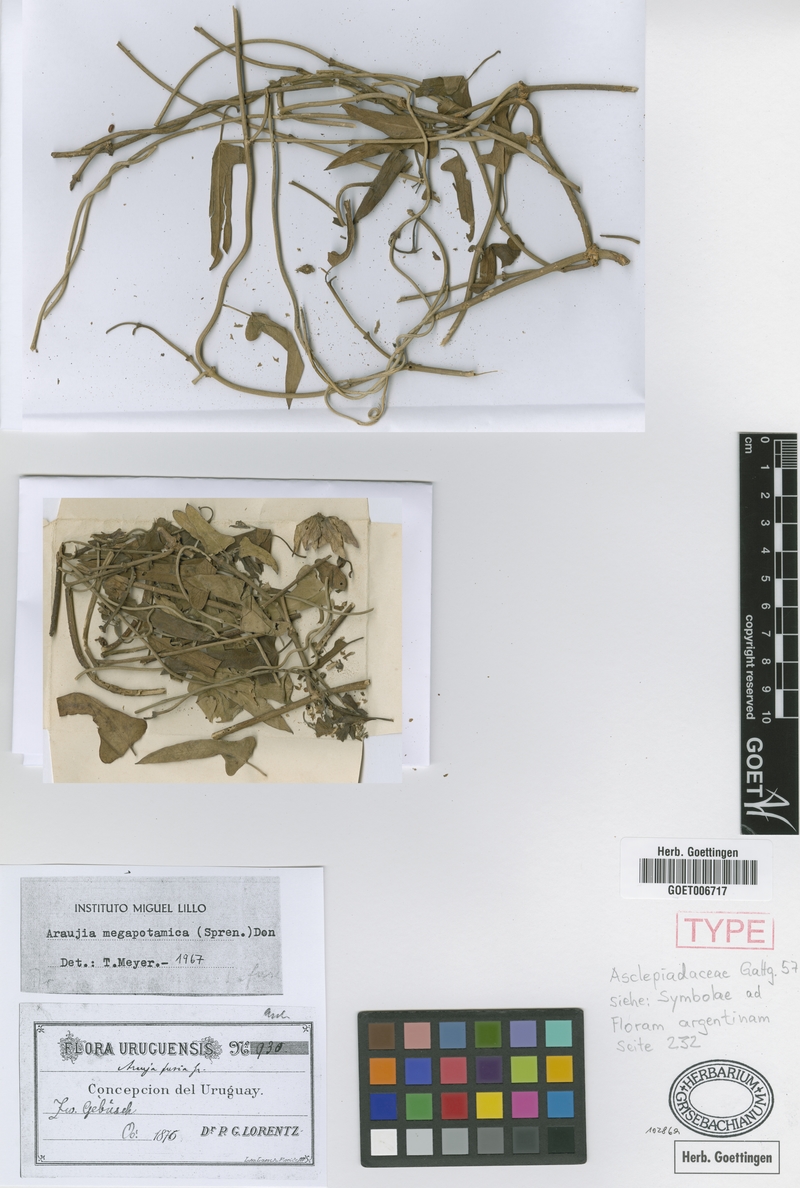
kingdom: Plantae
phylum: Tracheophyta
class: Magnoliopsida
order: Gentianales
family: Apocynaceae
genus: Araujia
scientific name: Araujia megapotamica
